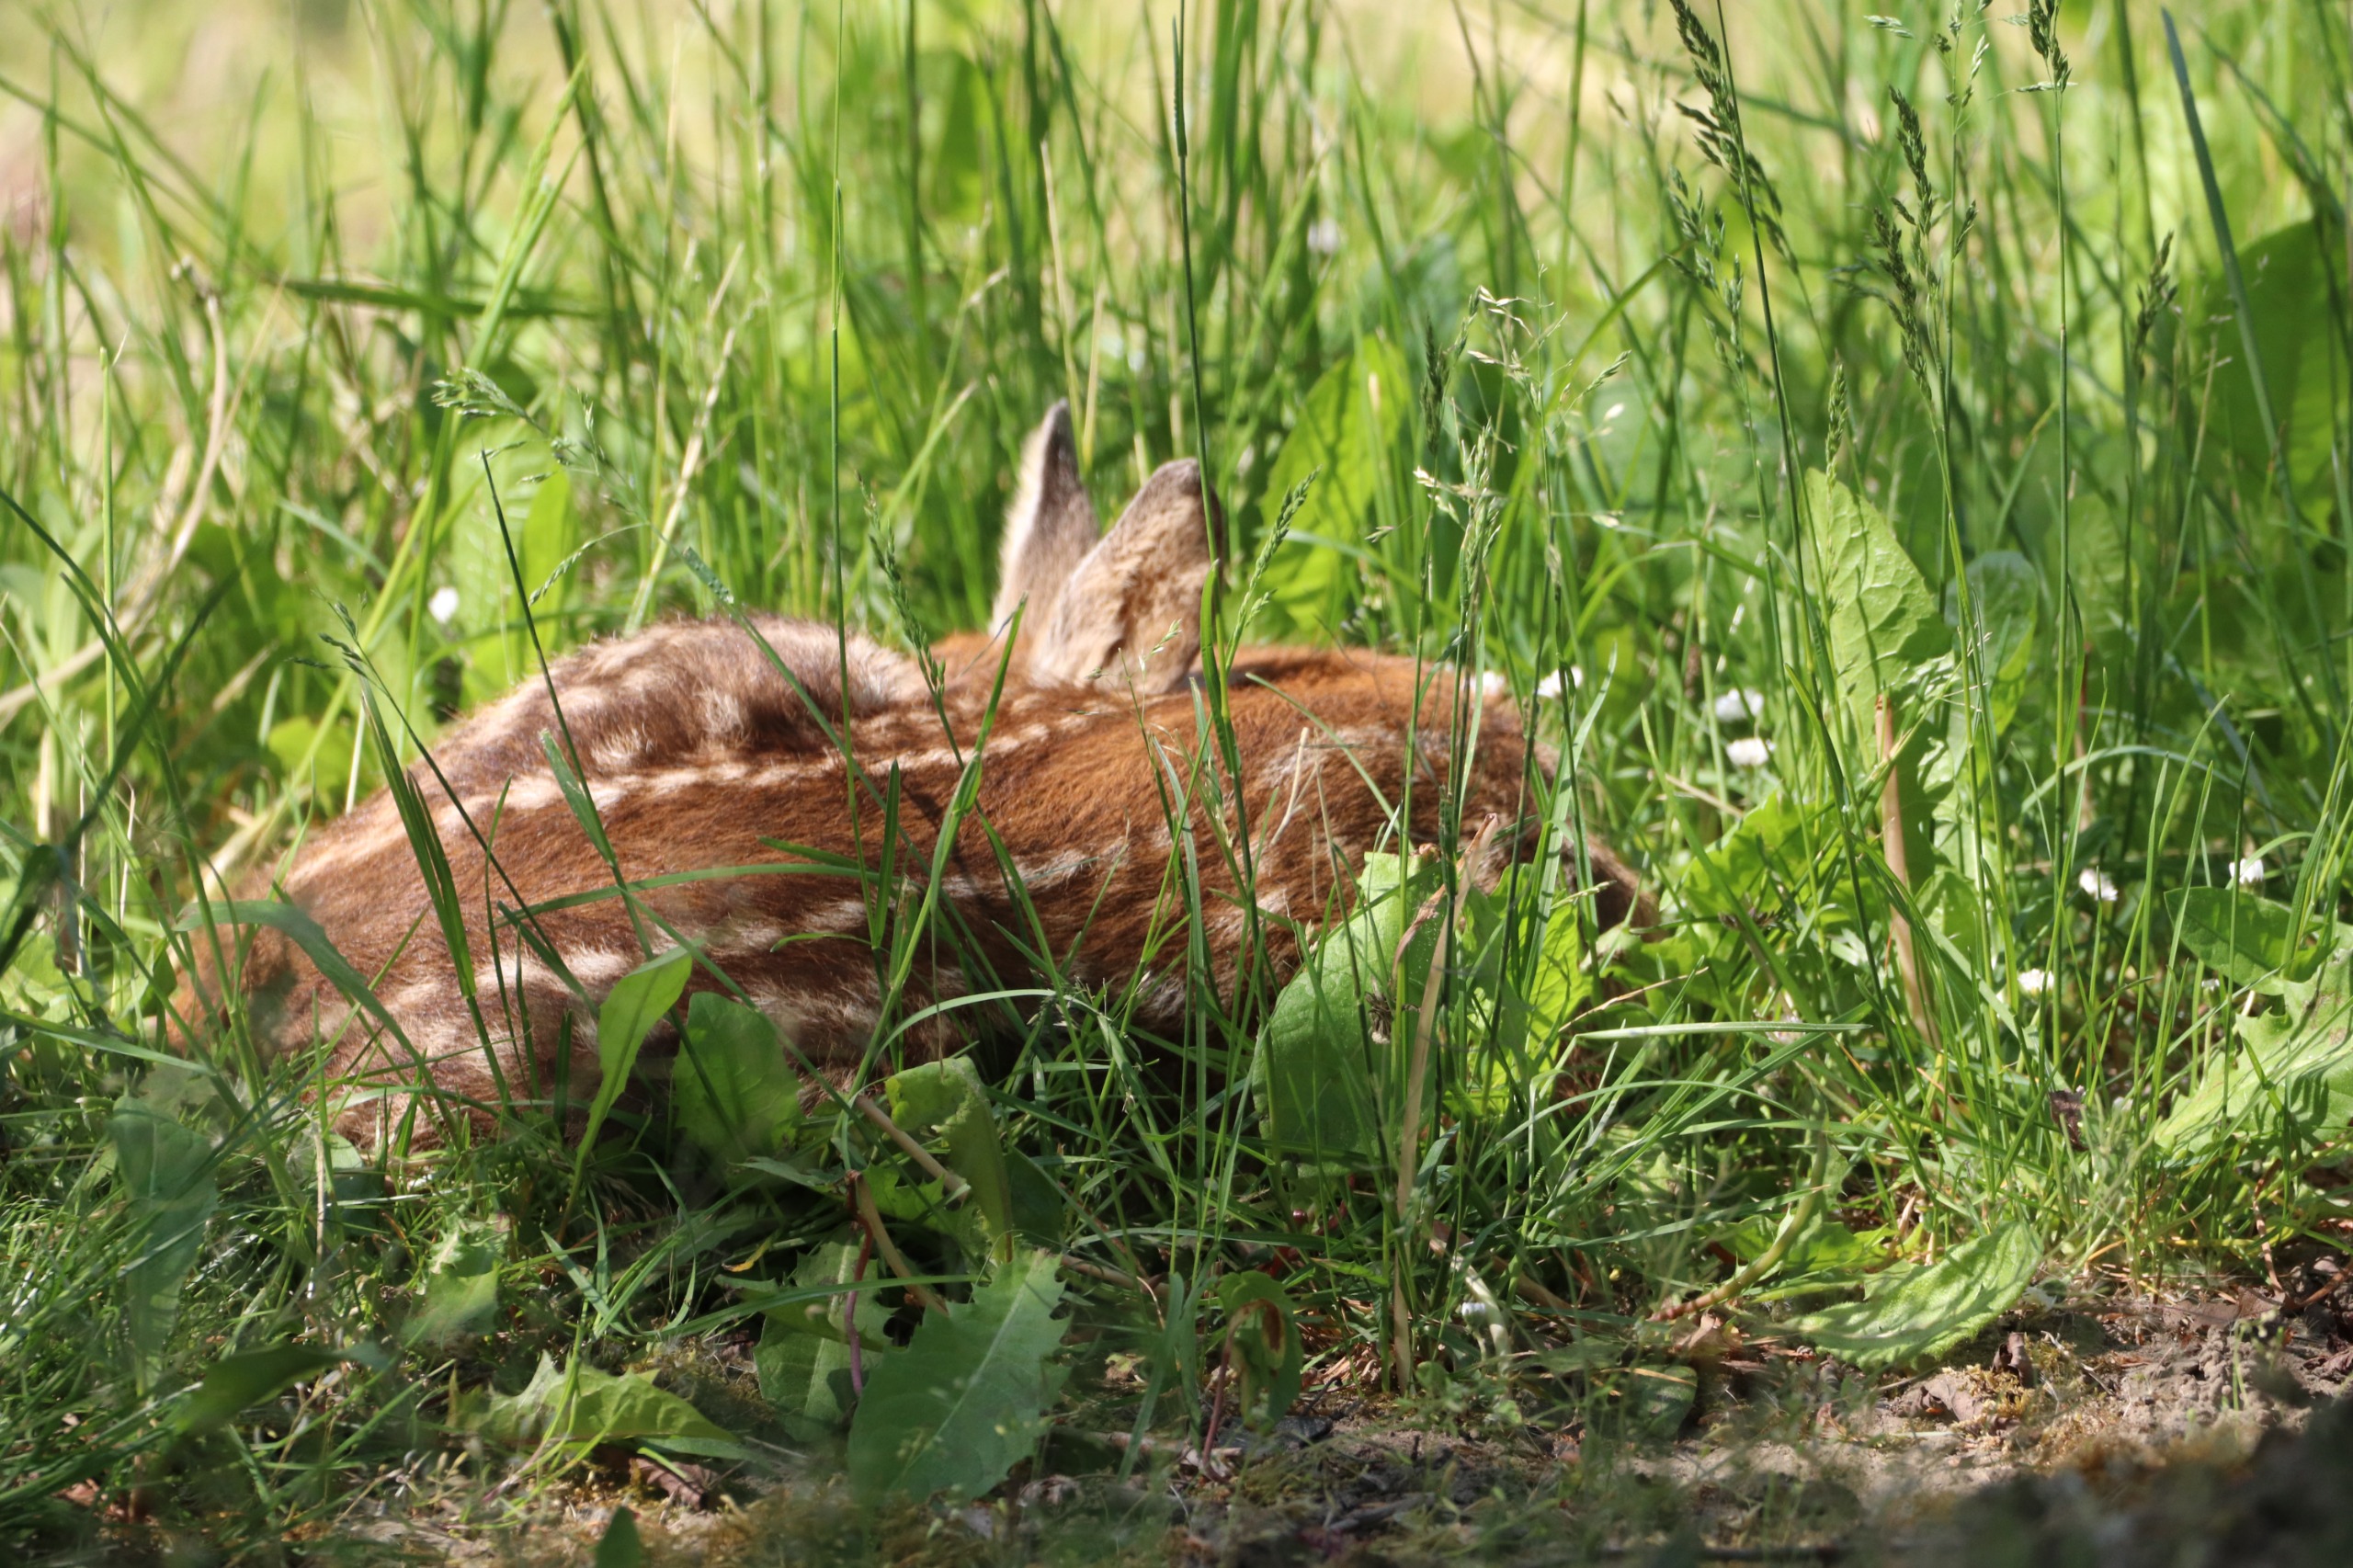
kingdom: Animalia
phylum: Chordata
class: Mammalia
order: Artiodactyla
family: Cervidae
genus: Capreolus
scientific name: Capreolus capreolus
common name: Rådyr
